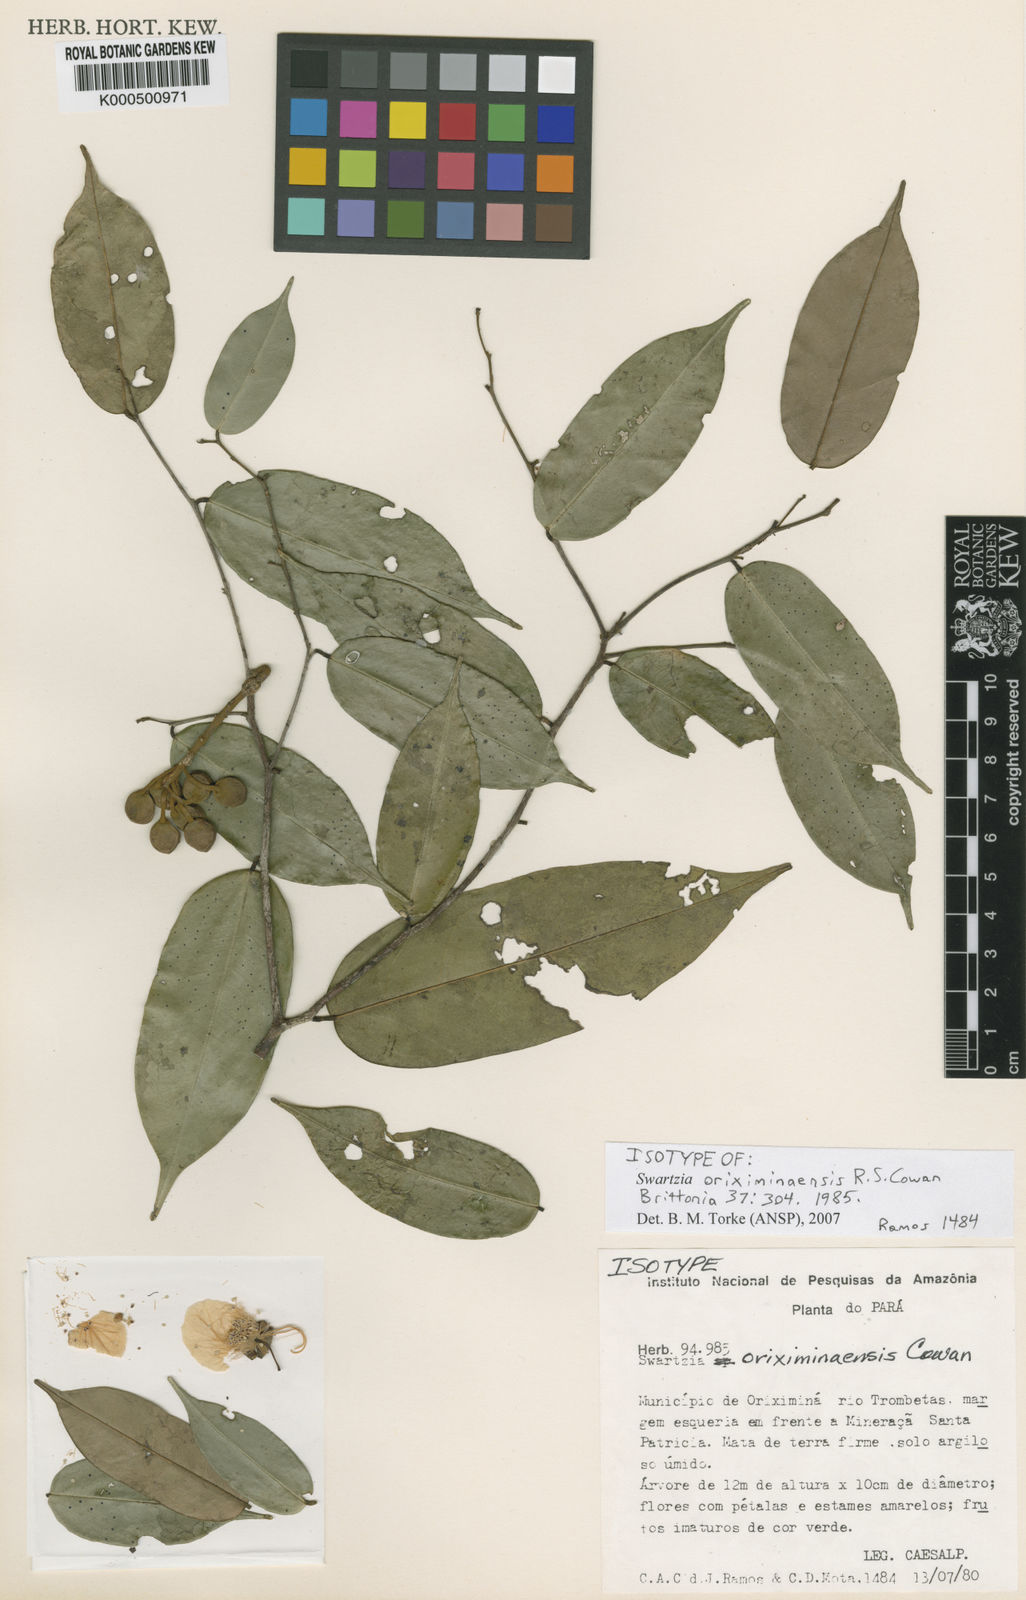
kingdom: Plantae
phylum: Tracheophyta
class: Magnoliopsida
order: Fabales
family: Fabaceae
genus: Swartzia
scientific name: Swartzia oriximinaensis
